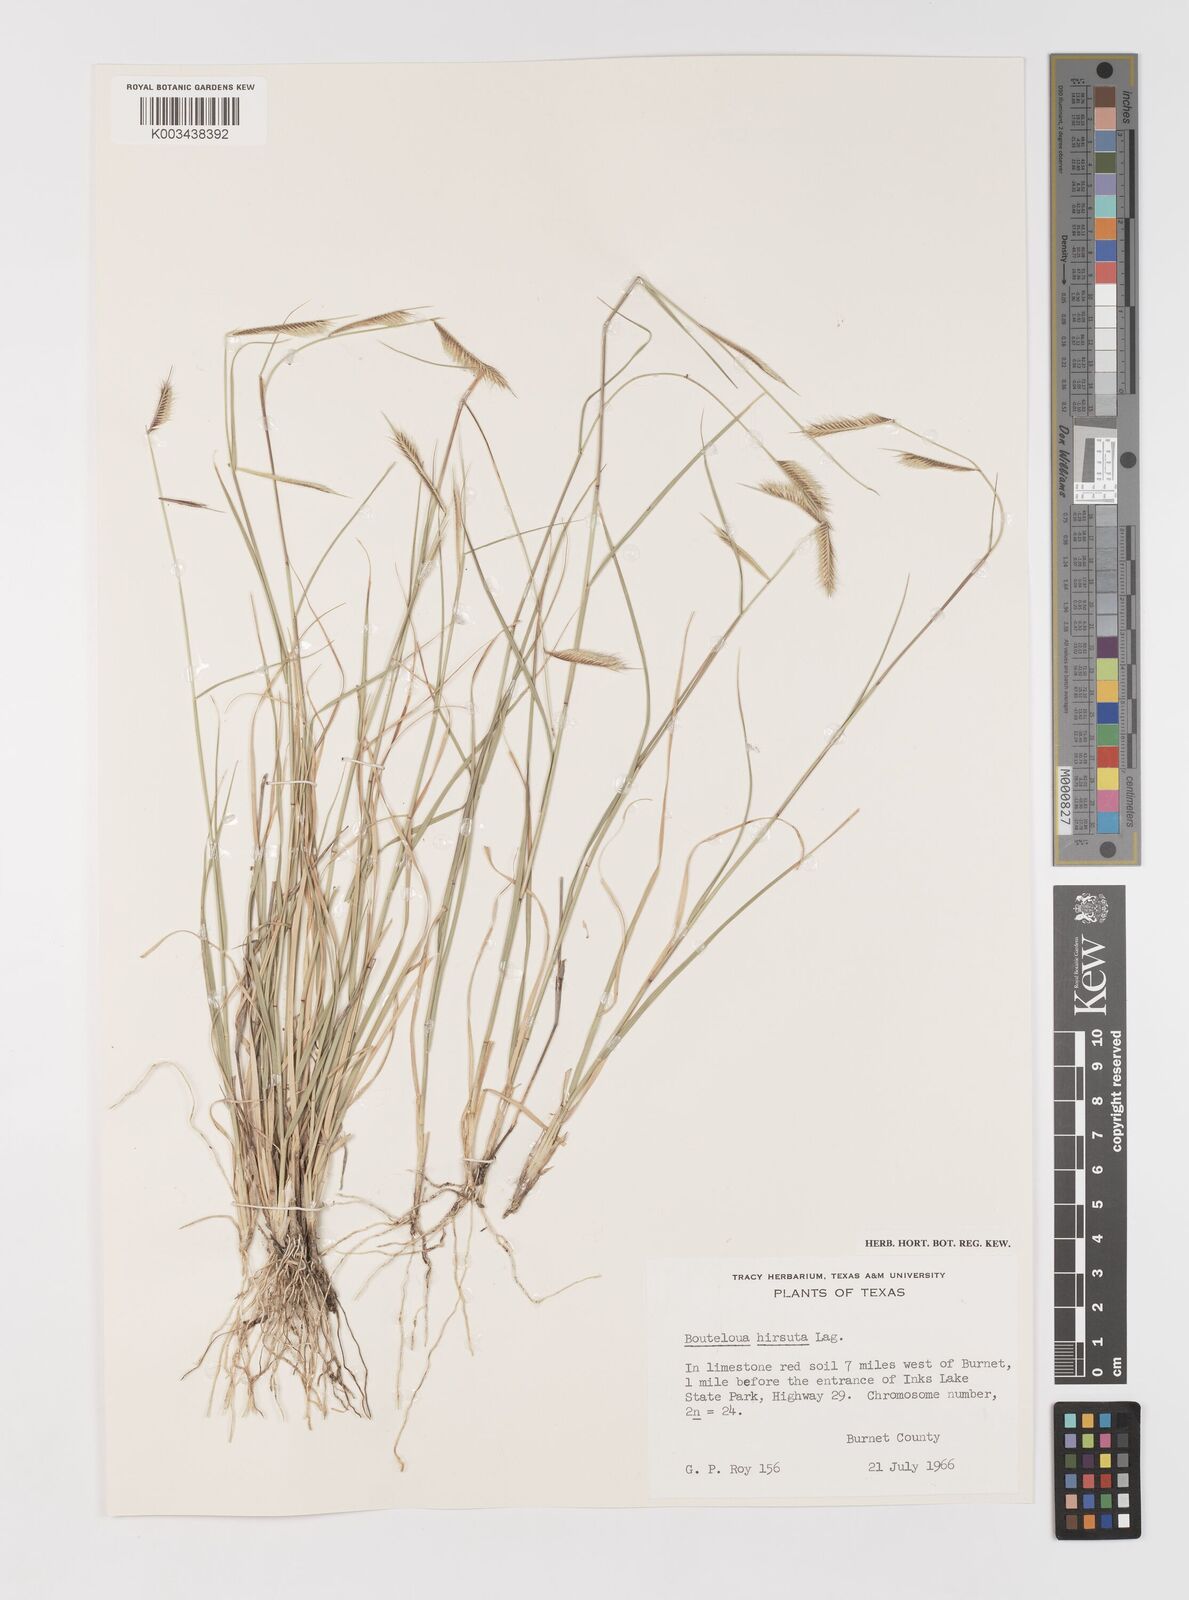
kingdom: Plantae
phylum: Tracheophyta
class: Liliopsida
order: Poales
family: Poaceae
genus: Bouteloua
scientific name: Bouteloua hirsuta
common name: Hairy grama
